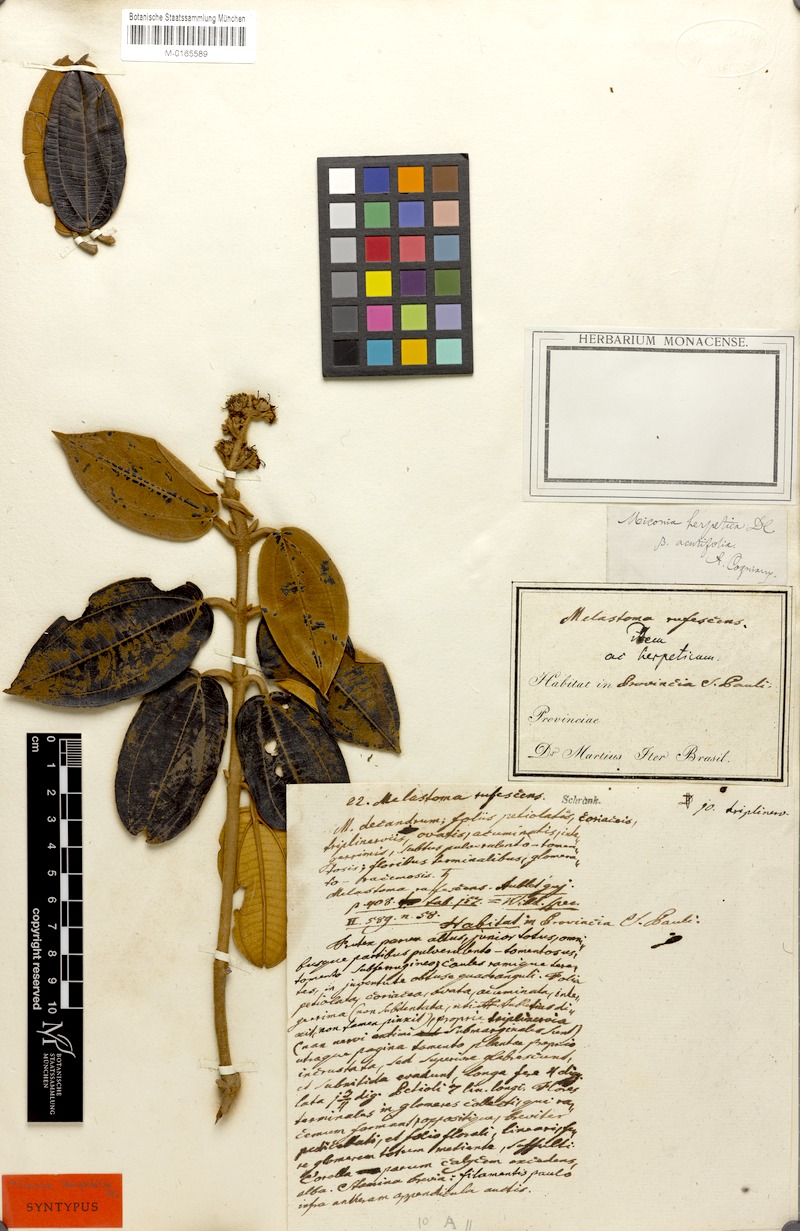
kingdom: Plantae
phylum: Tracheophyta
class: Magnoliopsida
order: Myrtales
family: Melastomataceae
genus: Miconia
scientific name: Miconia herpetica
